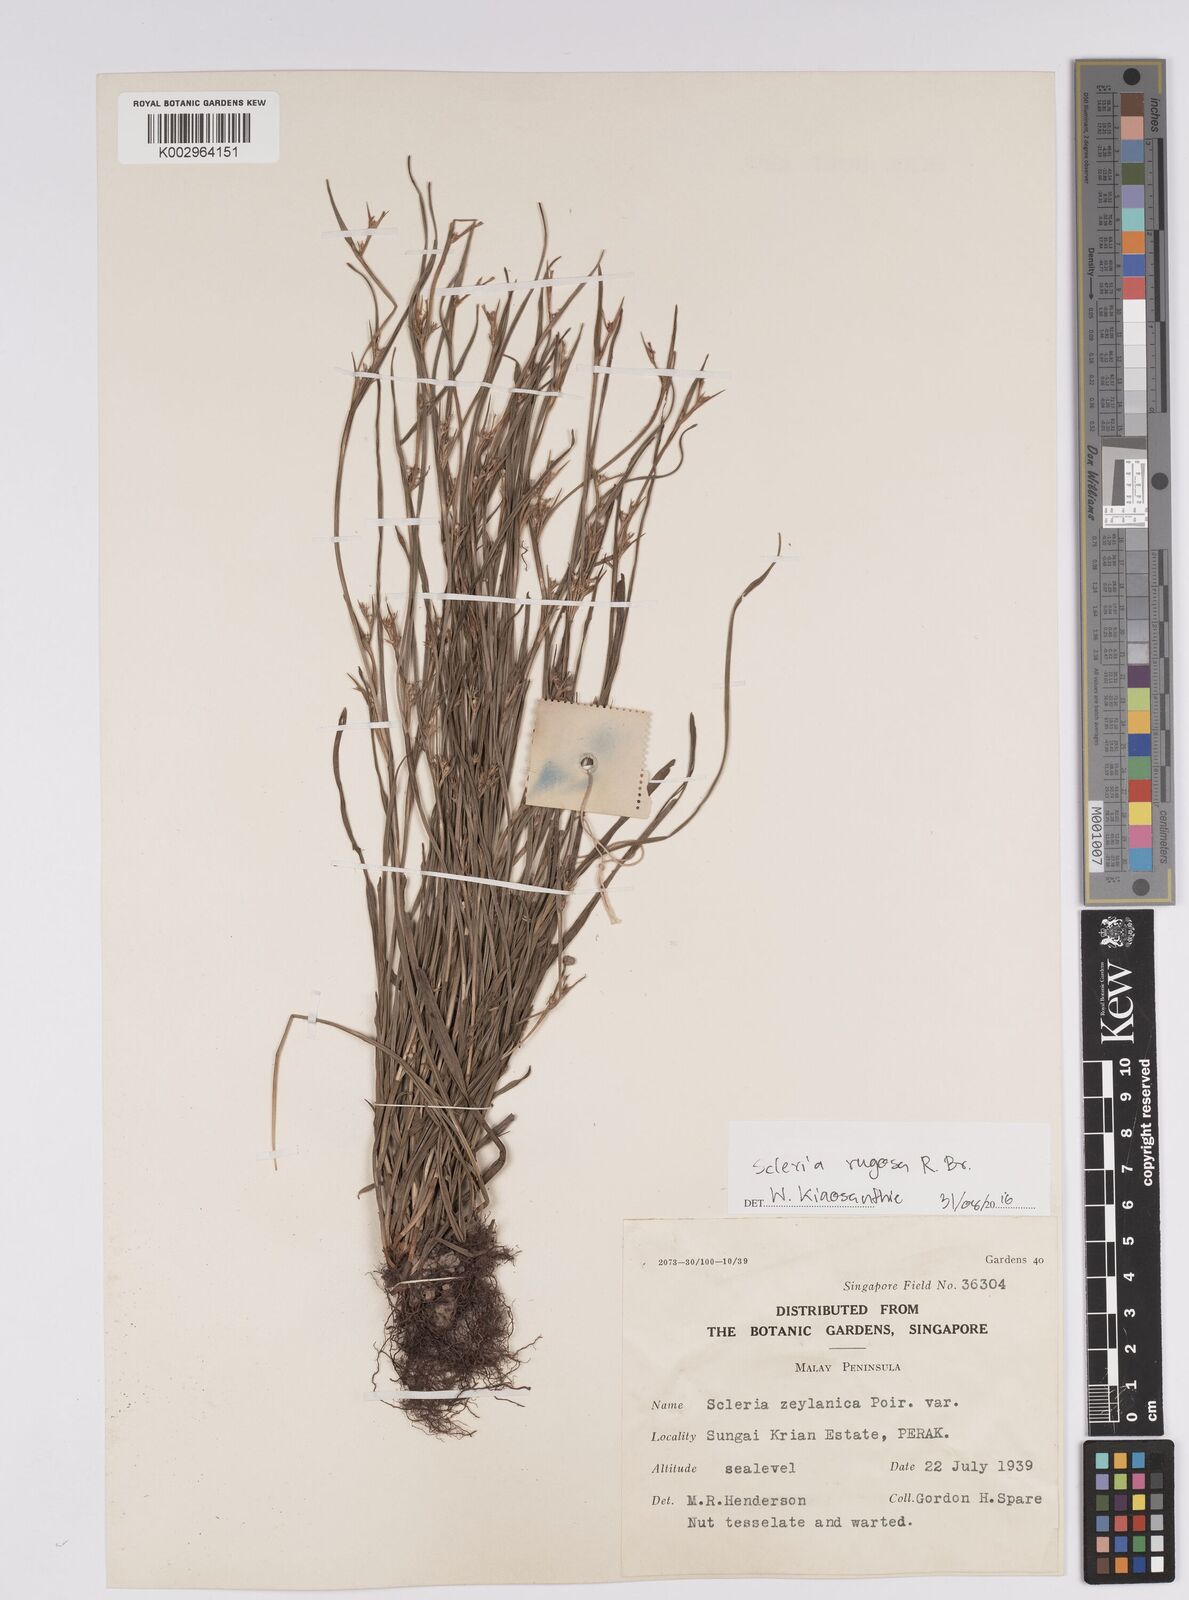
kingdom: Plantae
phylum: Tracheophyta
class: Liliopsida
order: Poales
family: Cyperaceae
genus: Scleria
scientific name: Scleria rugosa
